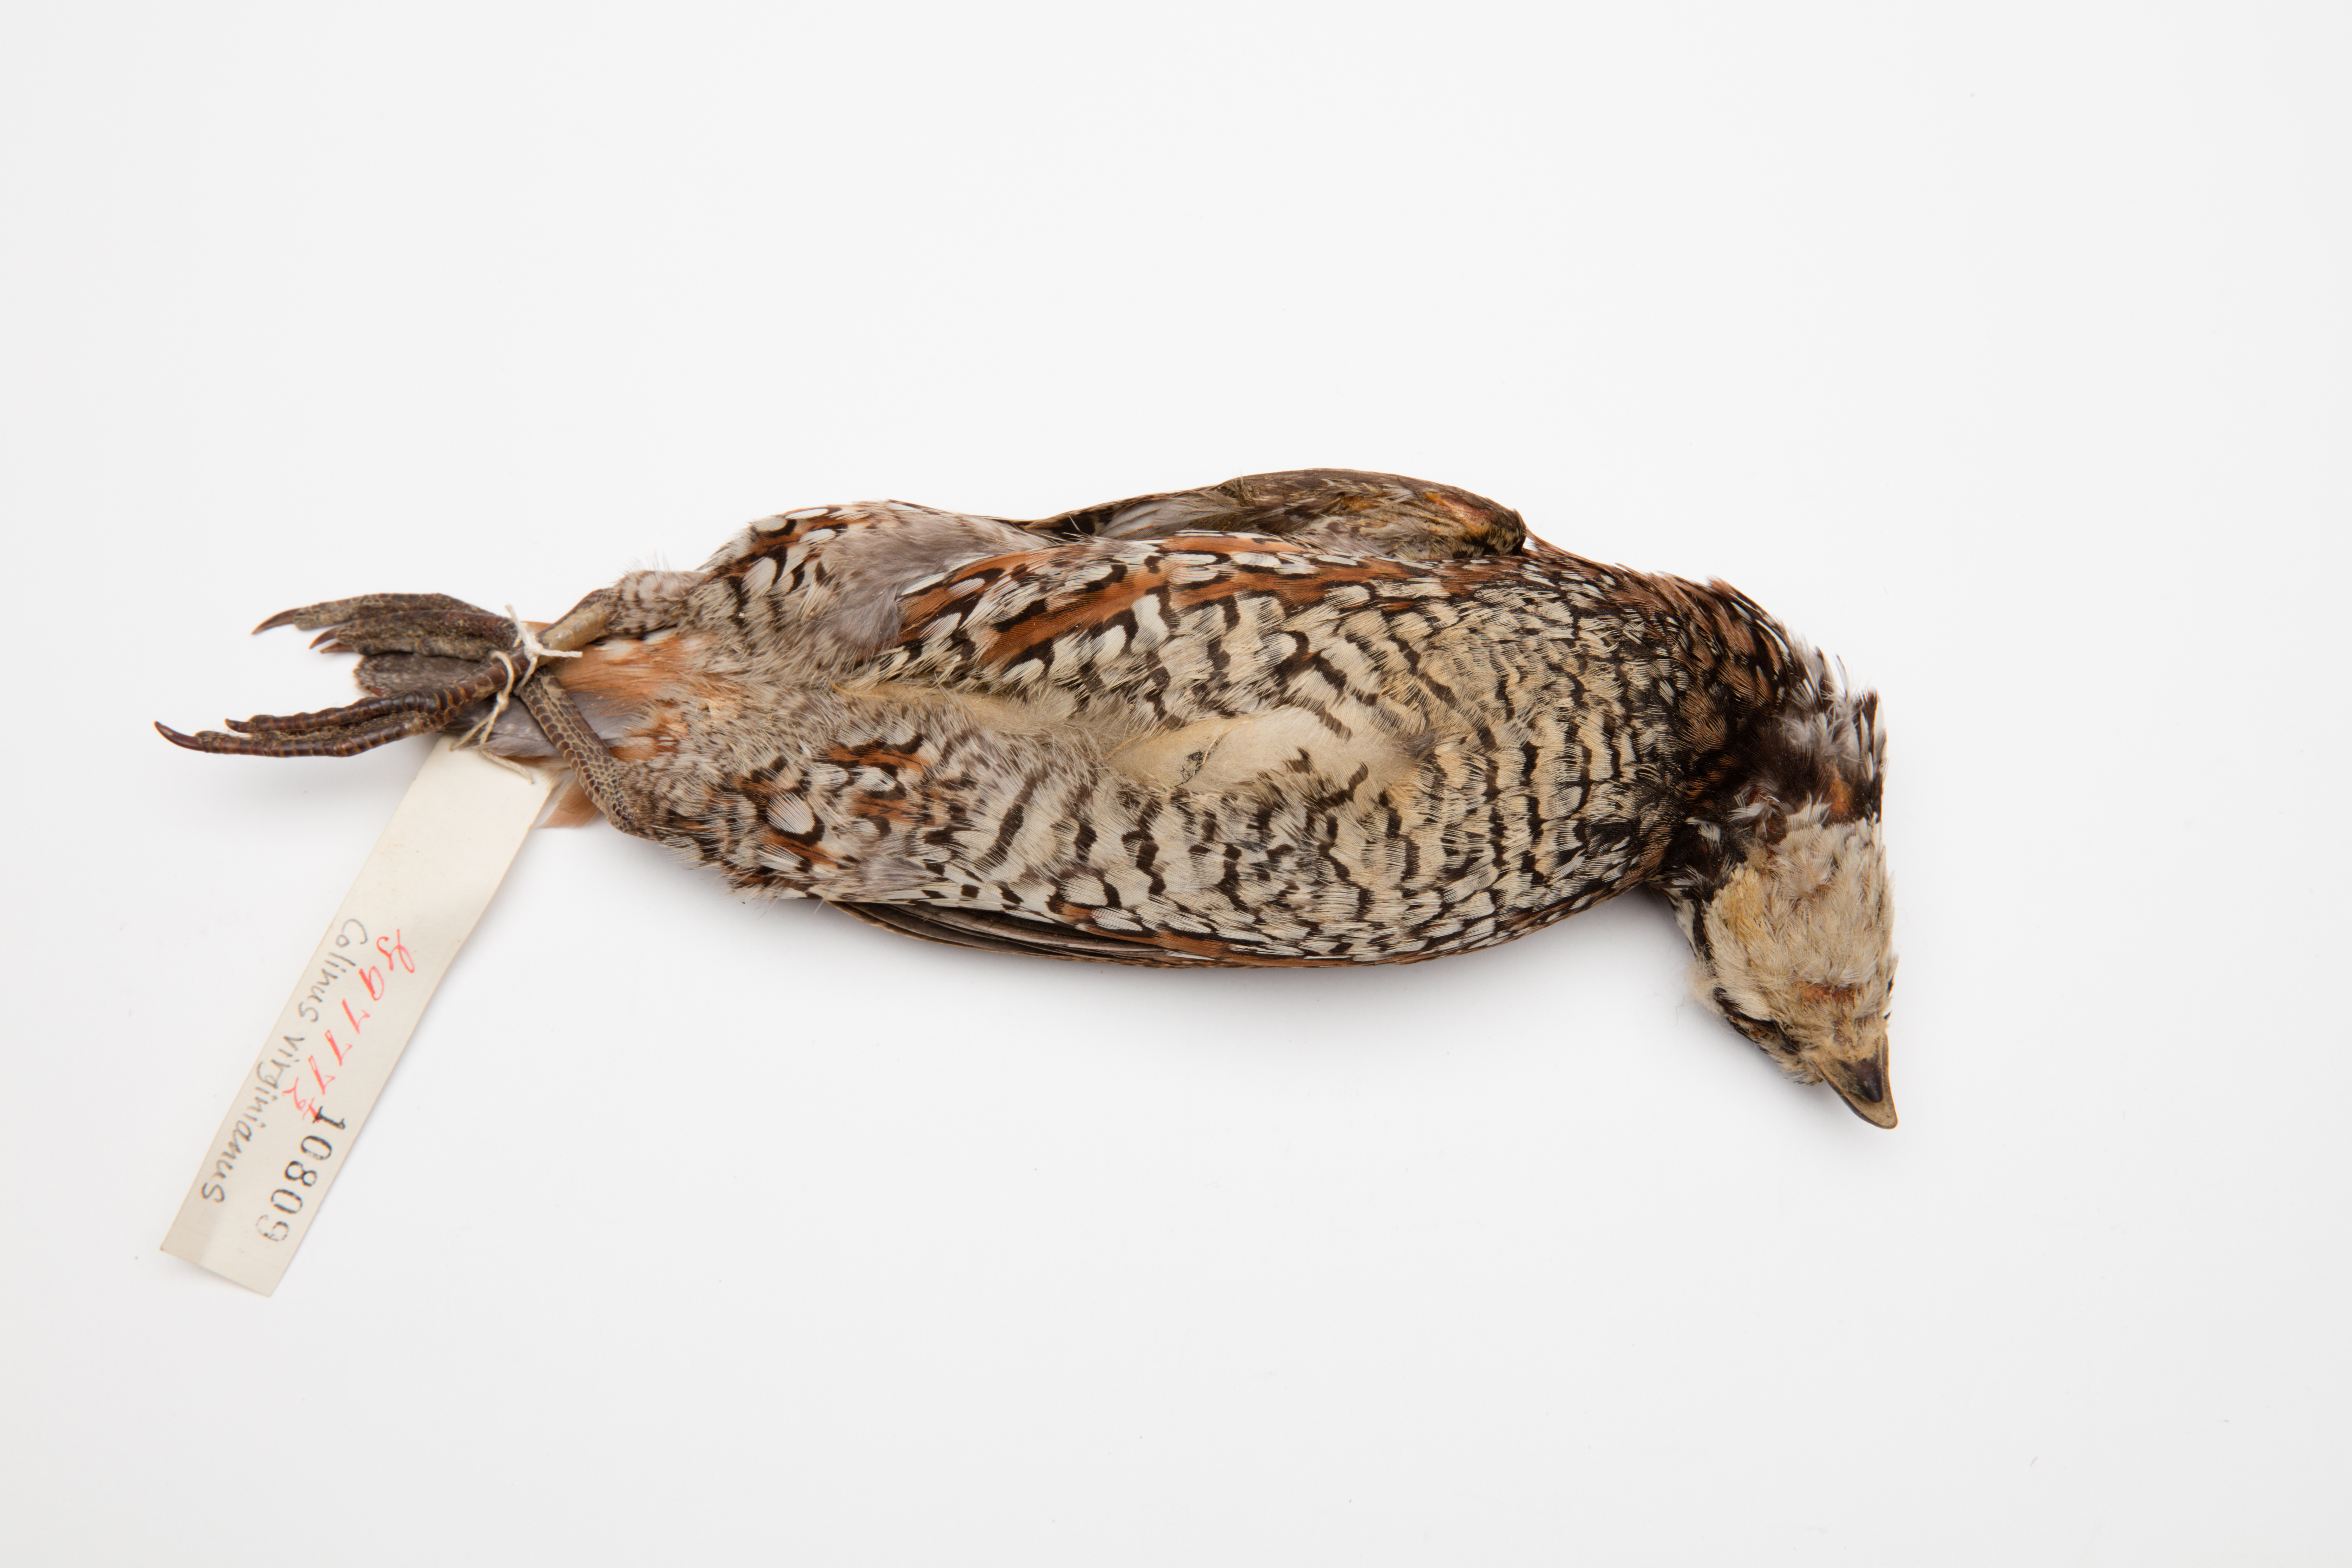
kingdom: Animalia
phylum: Chordata
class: Aves
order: Galliformes
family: Odontophoridae
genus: Colinus
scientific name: Colinus virginianus
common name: Northern bobwhite
